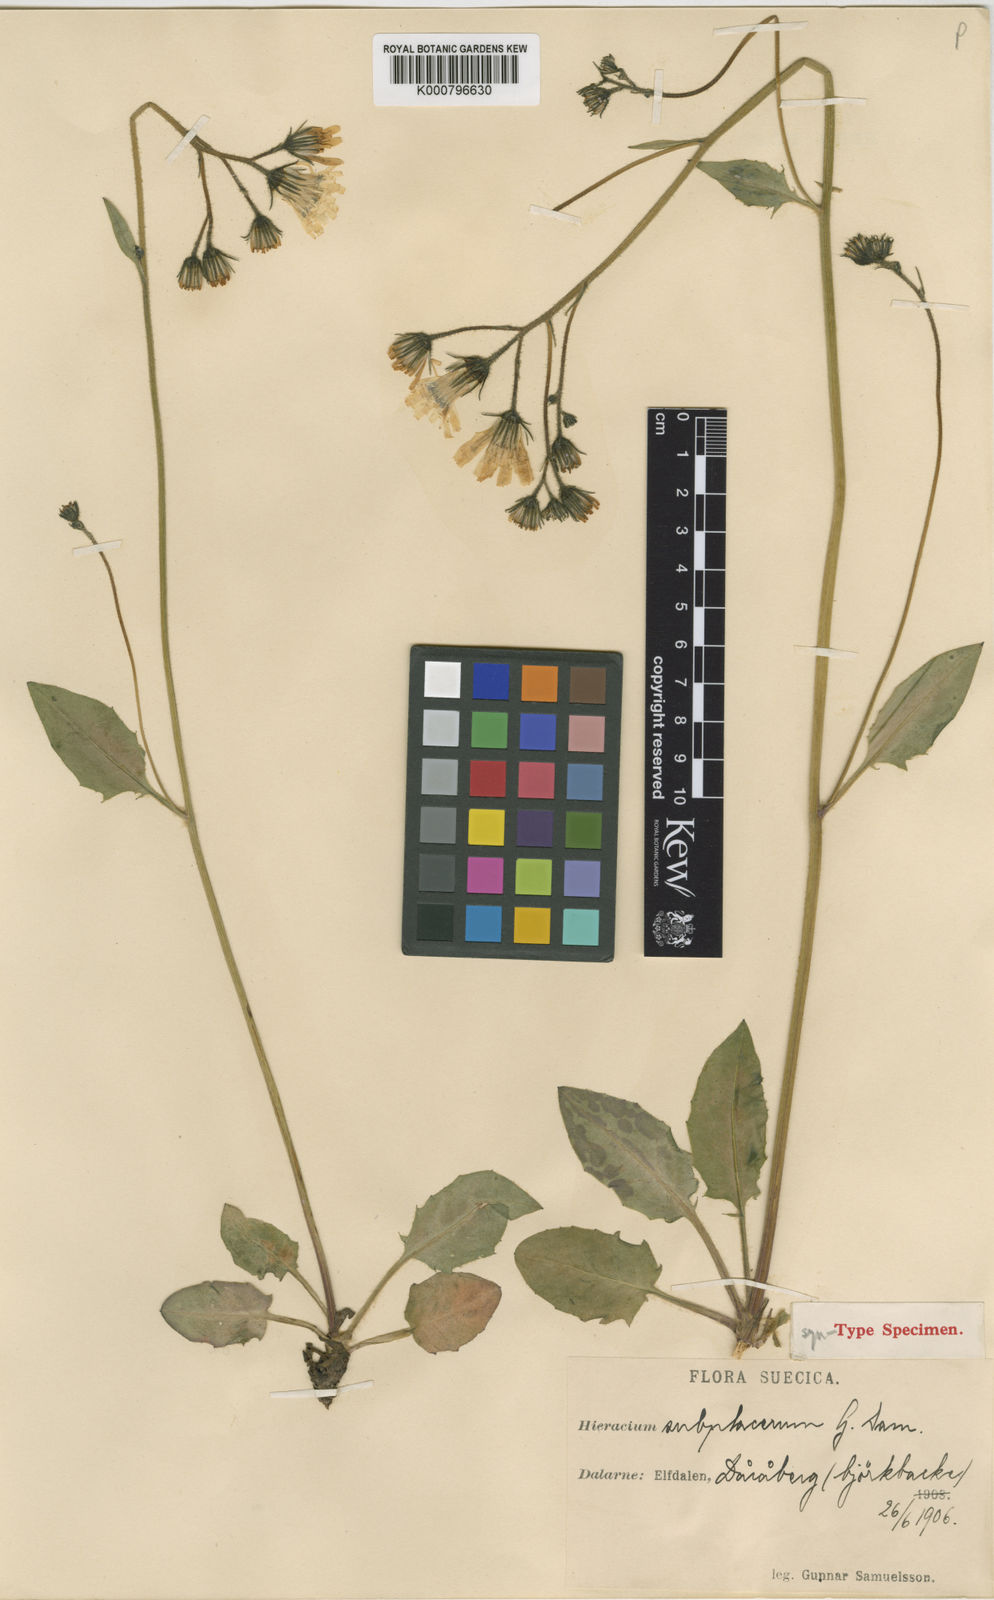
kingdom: Plantae
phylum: Tracheophyta
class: Magnoliopsida
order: Asterales
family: Asteraceae
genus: Hieracium
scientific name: Hieracium murorum
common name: Wall hawkweed
